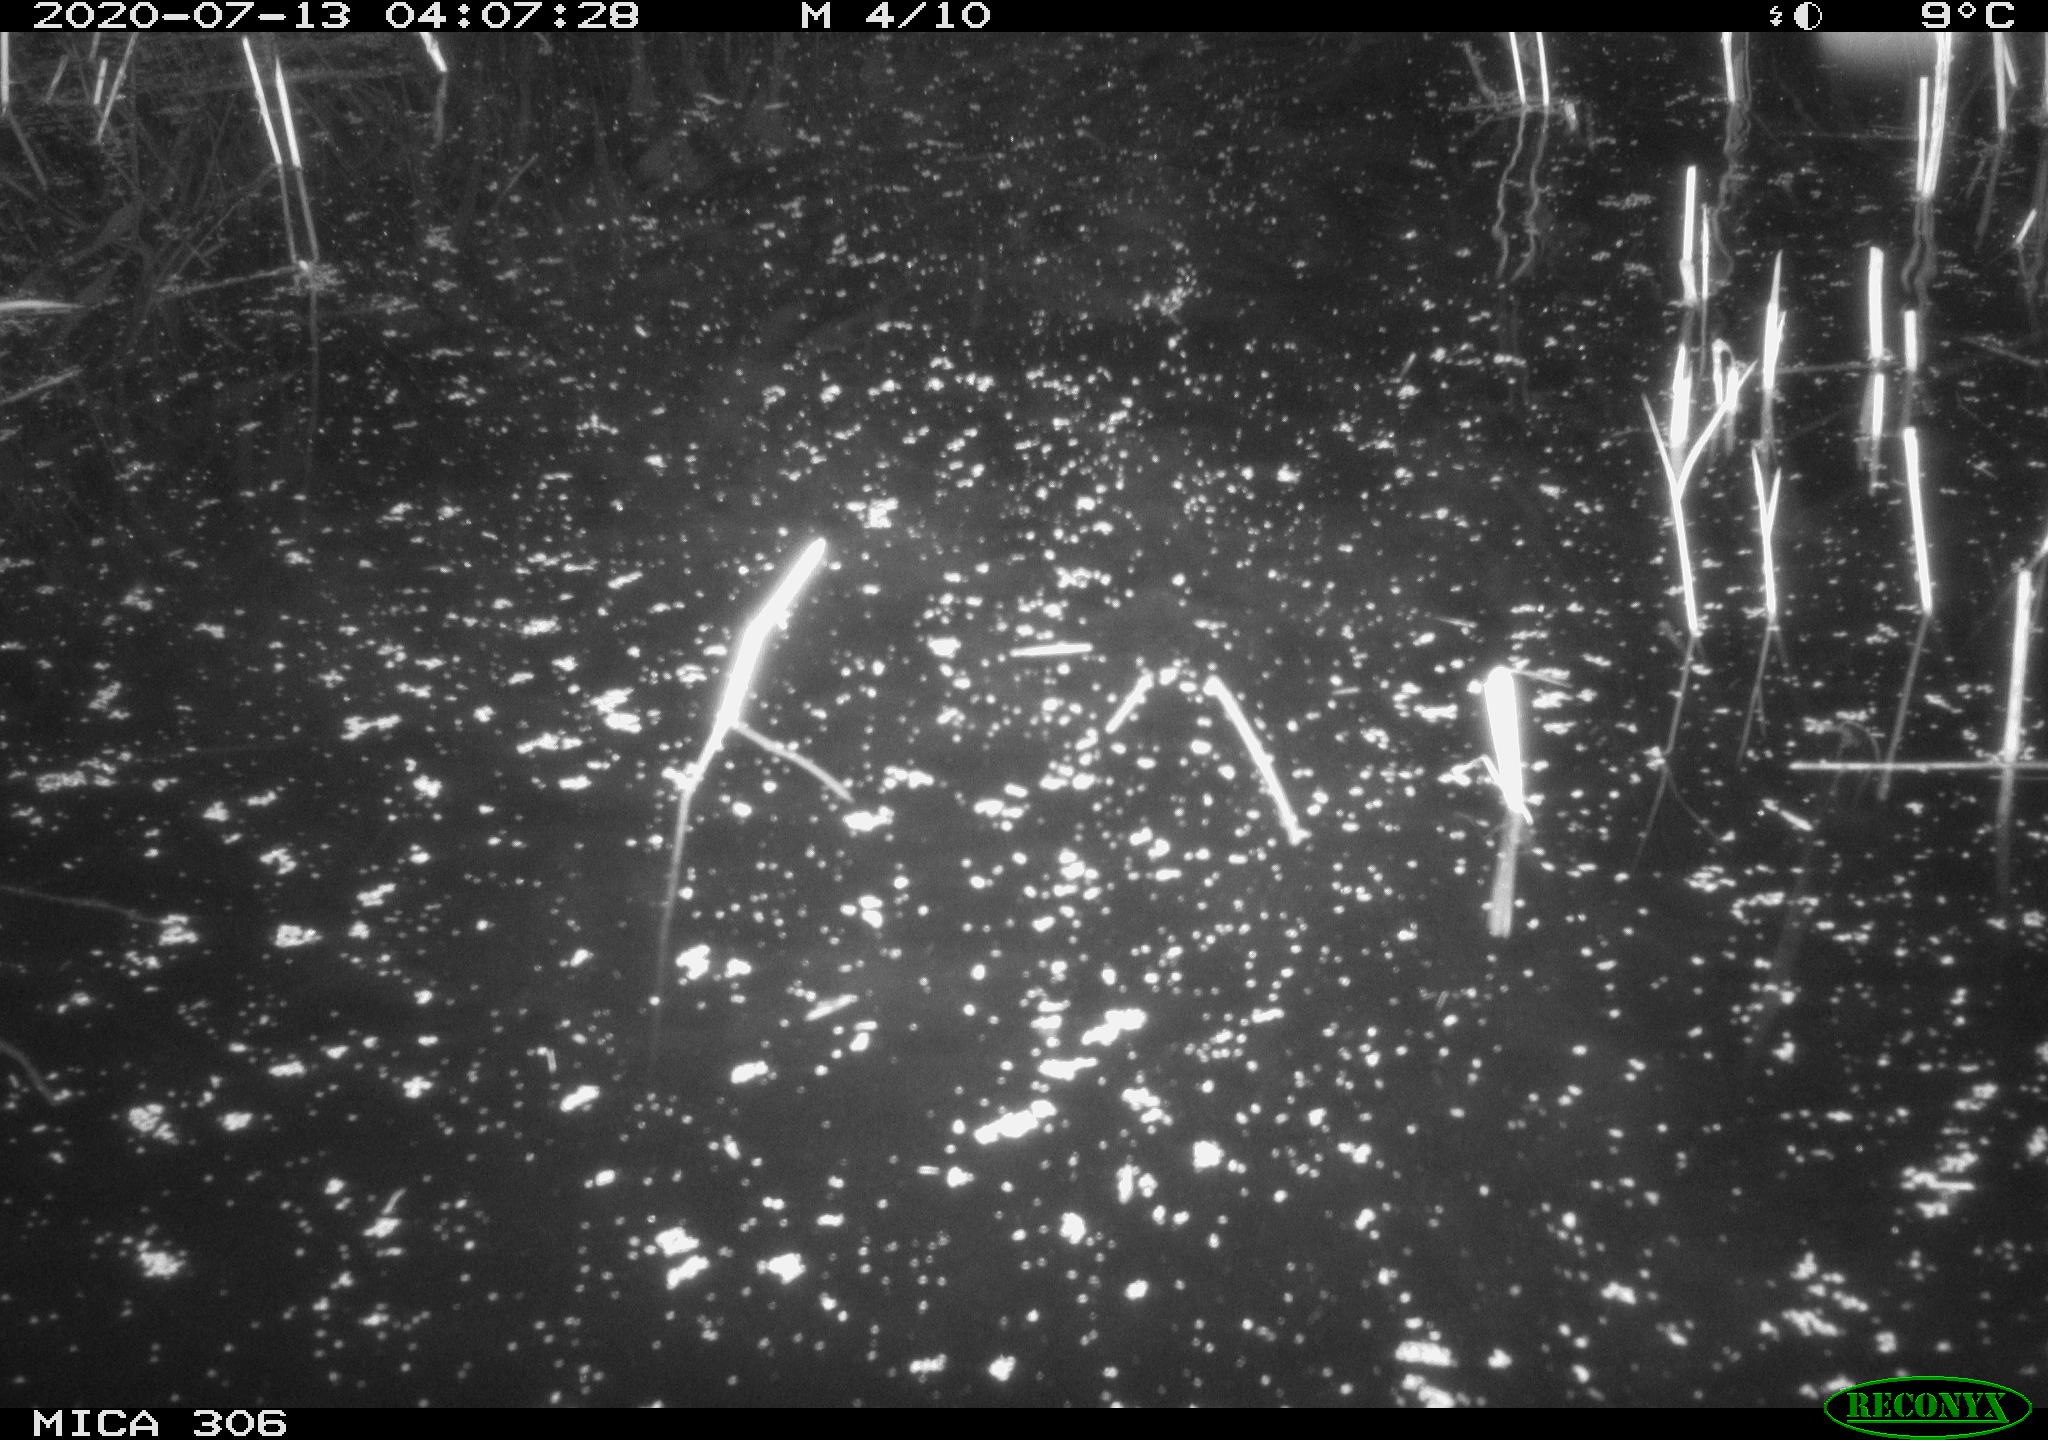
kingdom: Animalia
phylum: Chordata
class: Mammalia
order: Rodentia
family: Muridae
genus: Rattus
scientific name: Rattus norvegicus
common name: Brown rat
